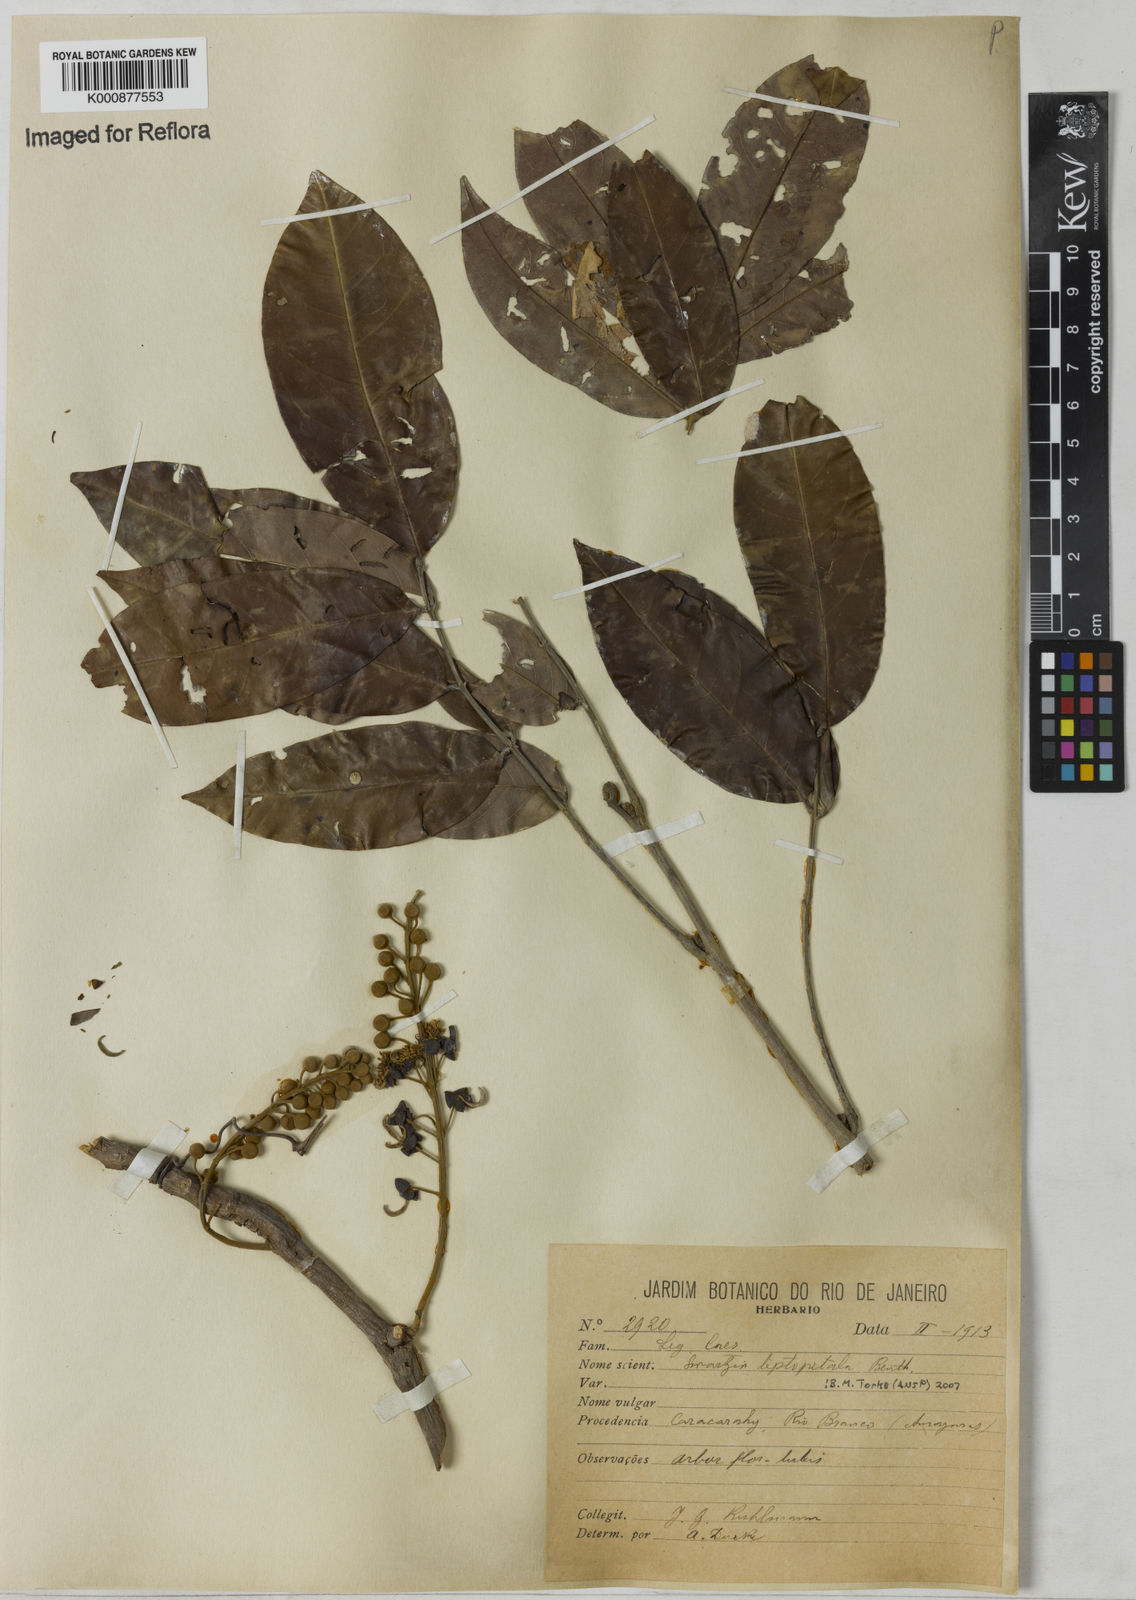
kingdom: Plantae
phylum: Tracheophyta
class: Magnoliopsida
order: Fabales
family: Fabaceae
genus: Swartzia
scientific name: Swartzia leptopetala
